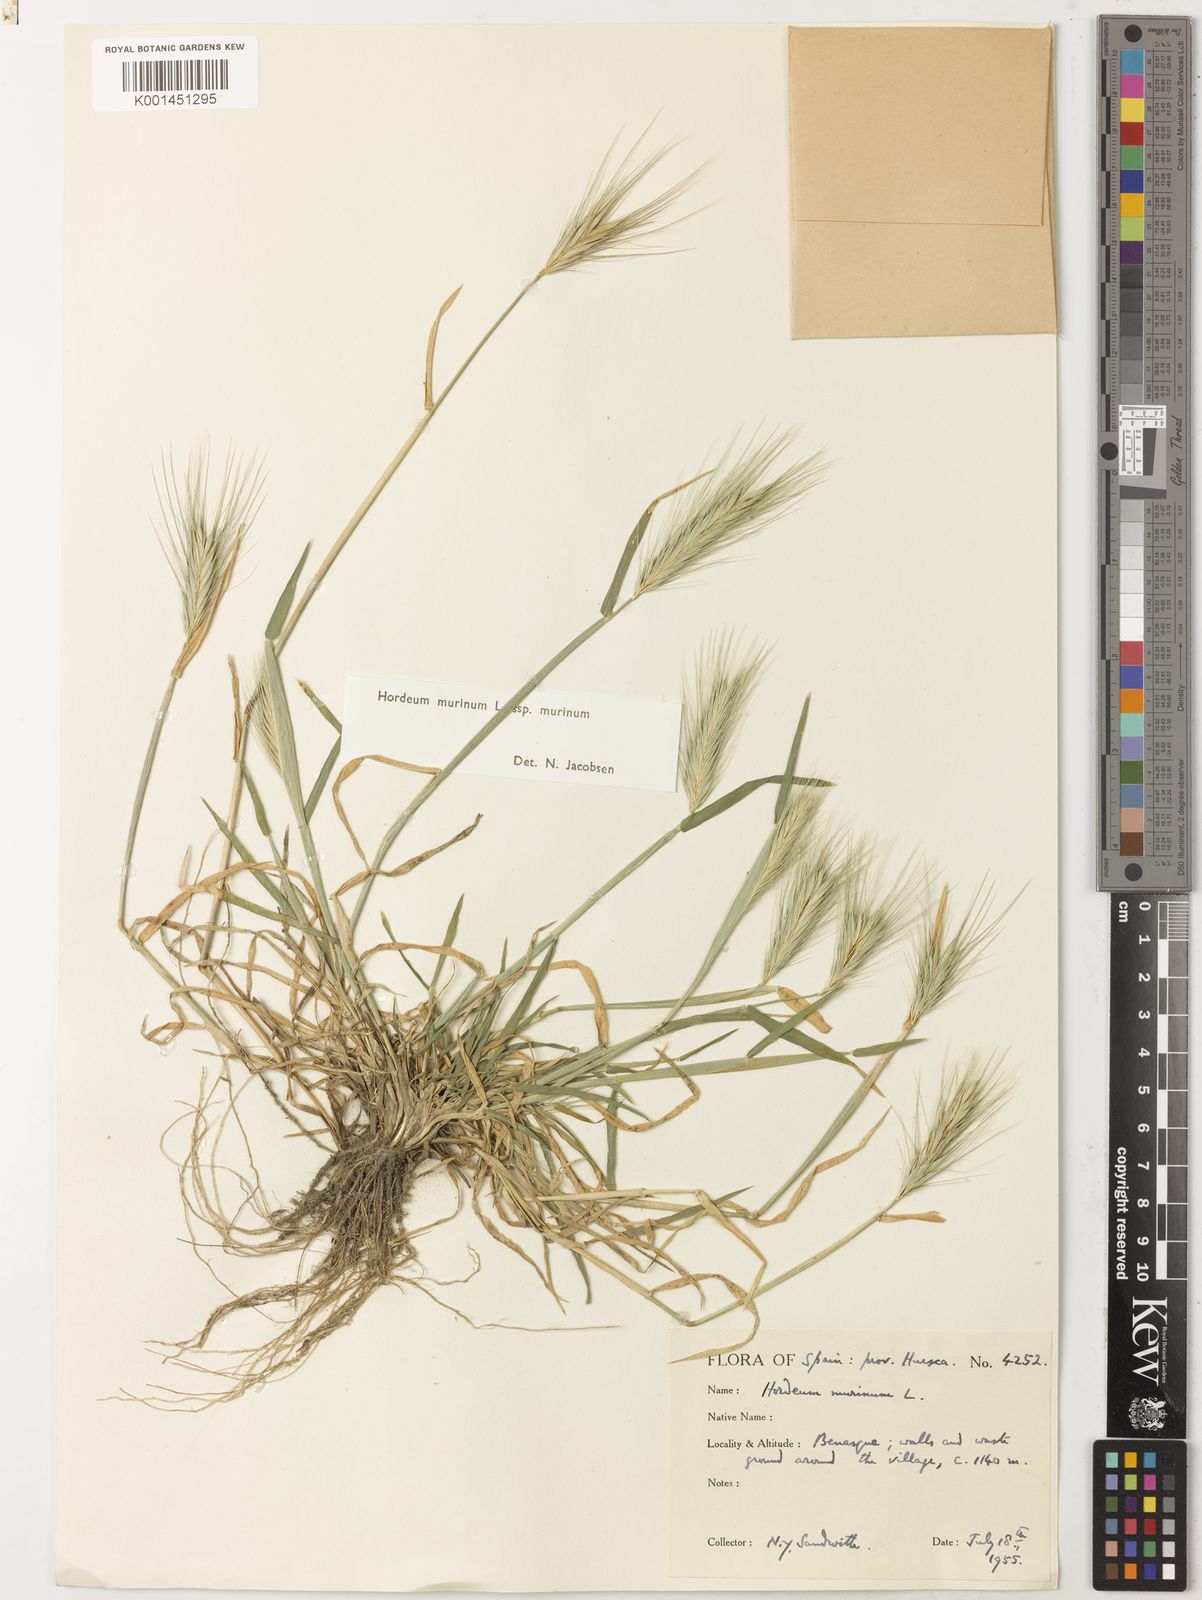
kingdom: Plantae
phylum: Tracheophyta
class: Liliopsida
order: Poales
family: Poaceae
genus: Hordeum
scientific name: Hordeum murinum
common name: Wall barley
